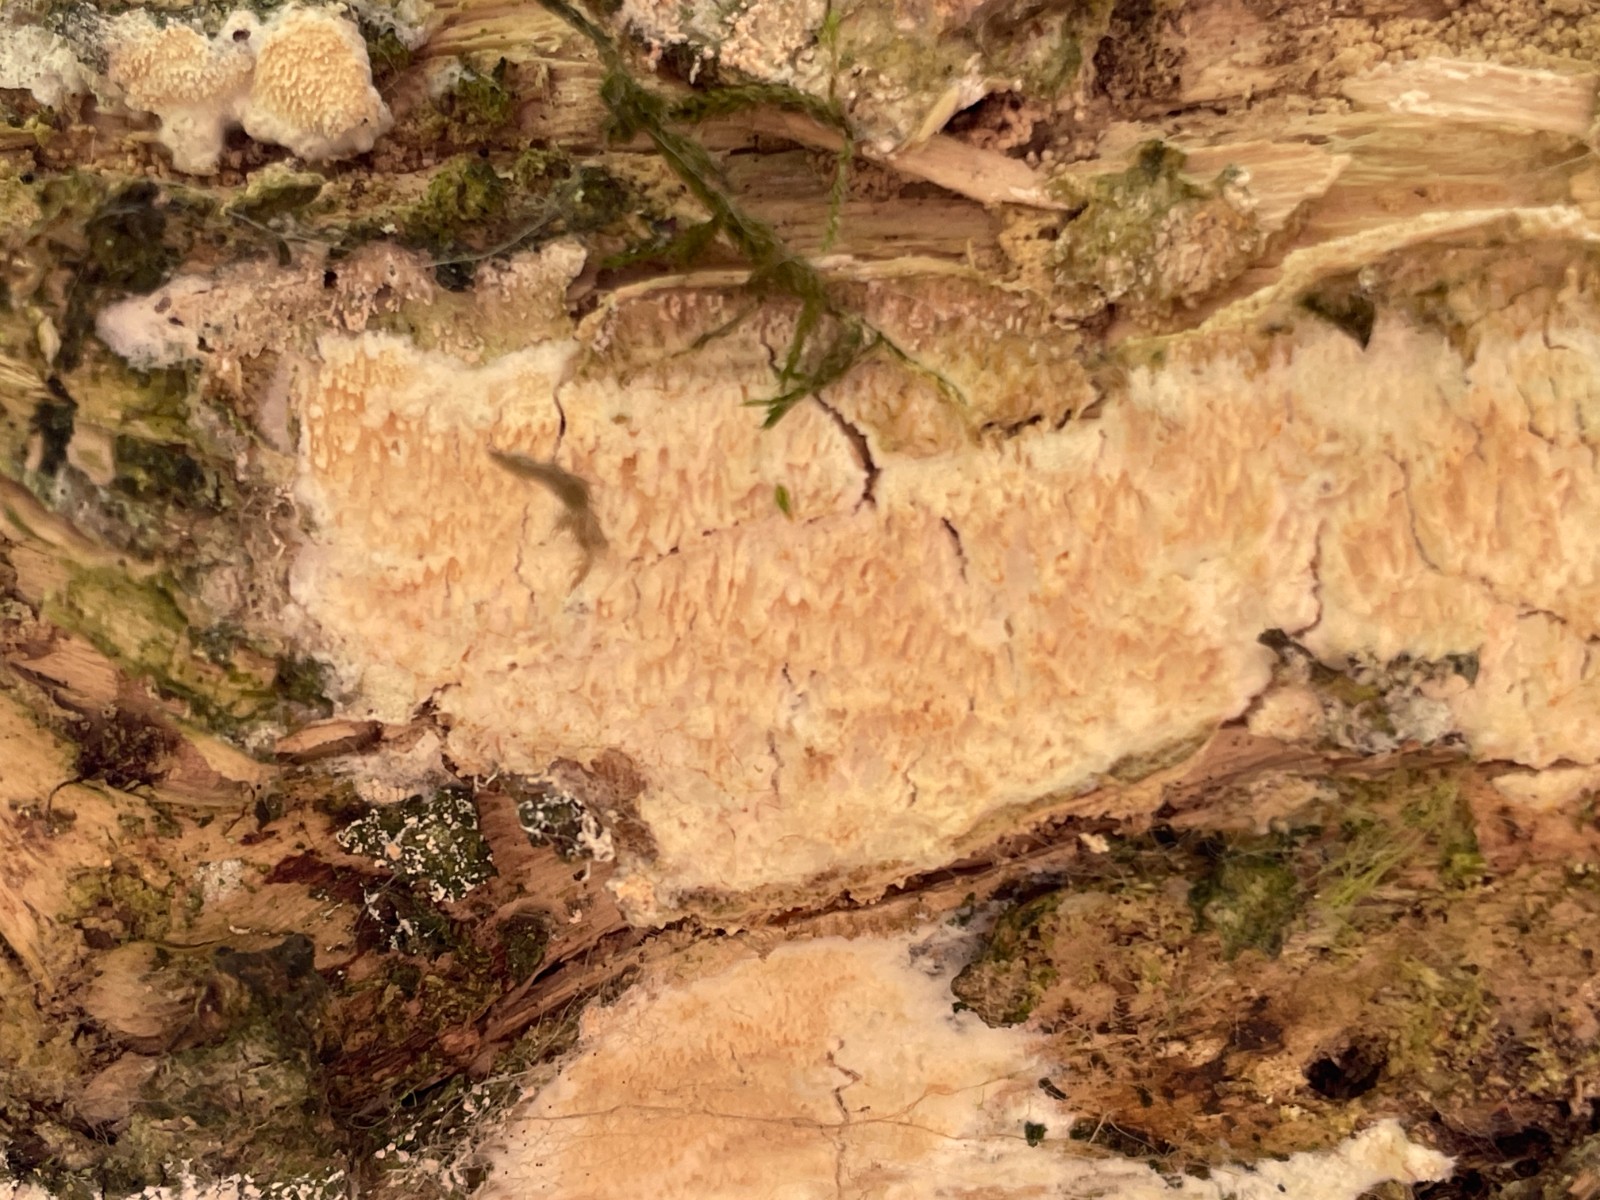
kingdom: Fungi
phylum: Basidiomycota
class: Agaricomycetes
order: Corticiales
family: Corticiaceae
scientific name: Corticiaceae
